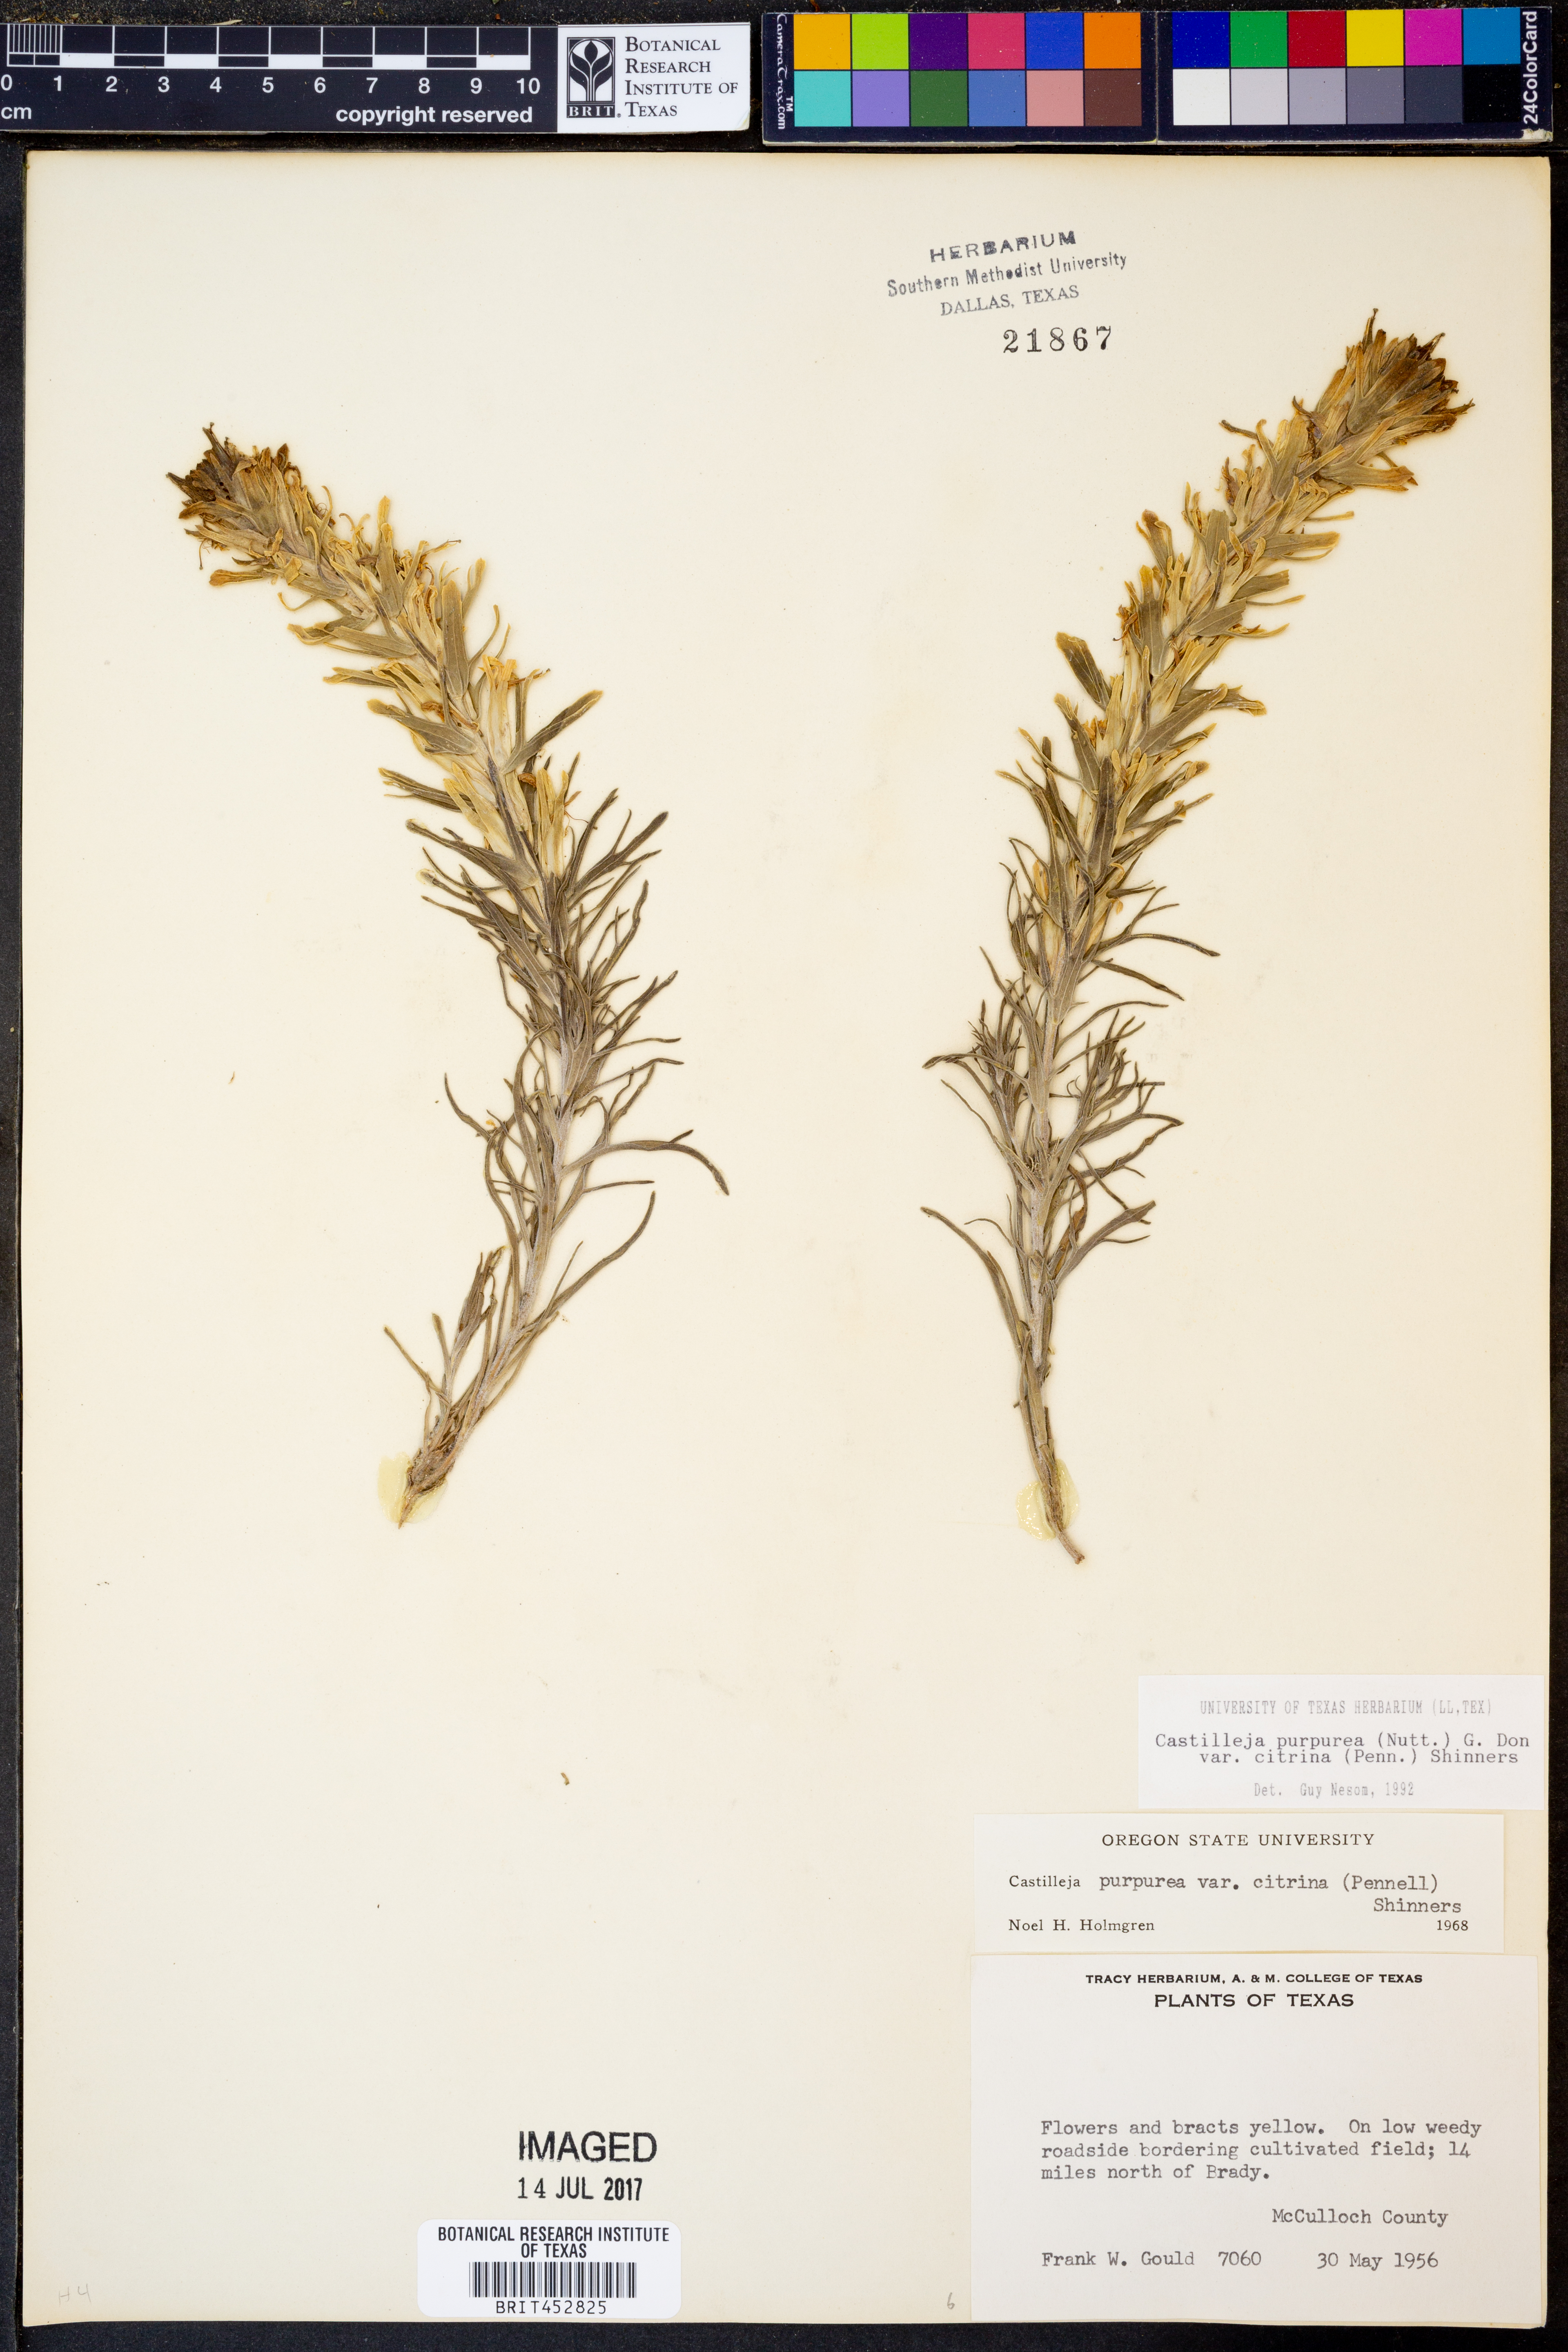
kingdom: Plantae
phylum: Tracheophyta
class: Magnoliopsida
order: Lamiales
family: Orobanchaceae
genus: Castilleja
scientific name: Castilleja purpurea
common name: Plains paintbrush
